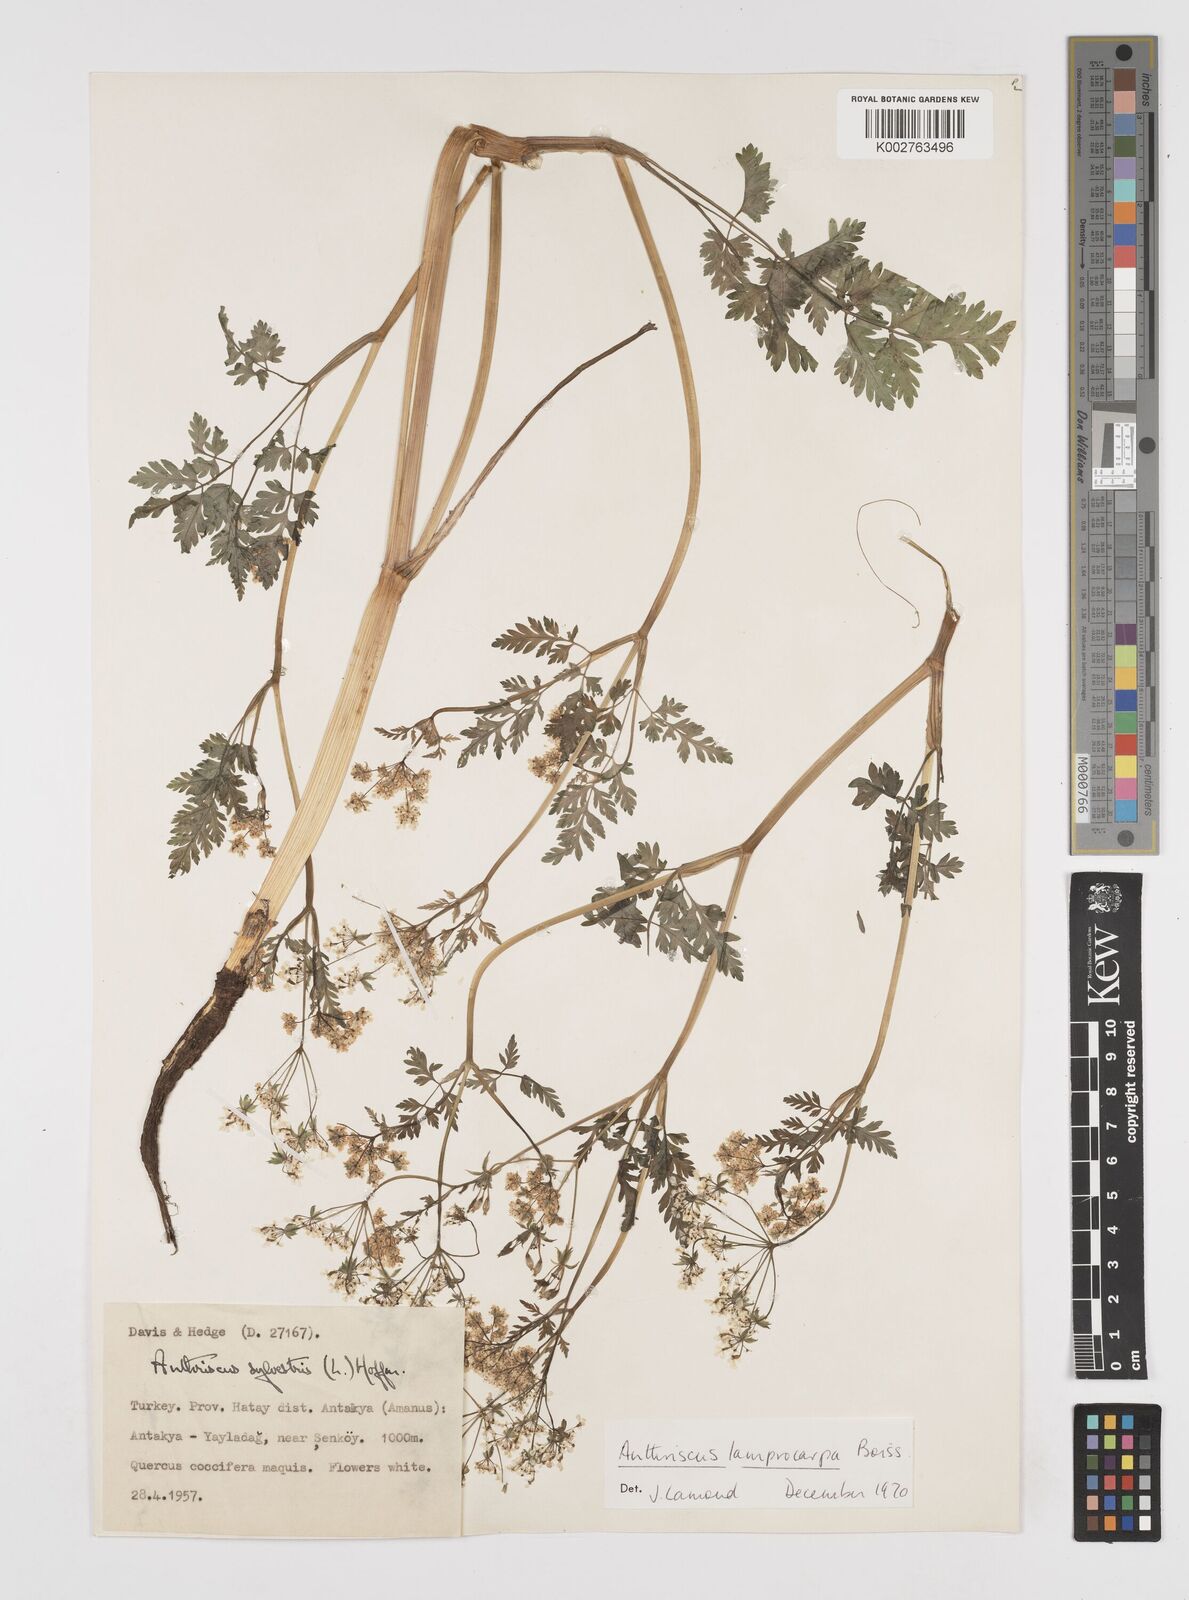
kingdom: Plantae
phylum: Tracheophyta
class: Magnoliopsida
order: Apiales
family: Apiaceae
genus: Anthriscus
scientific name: Anthriscus lamprocarpa
